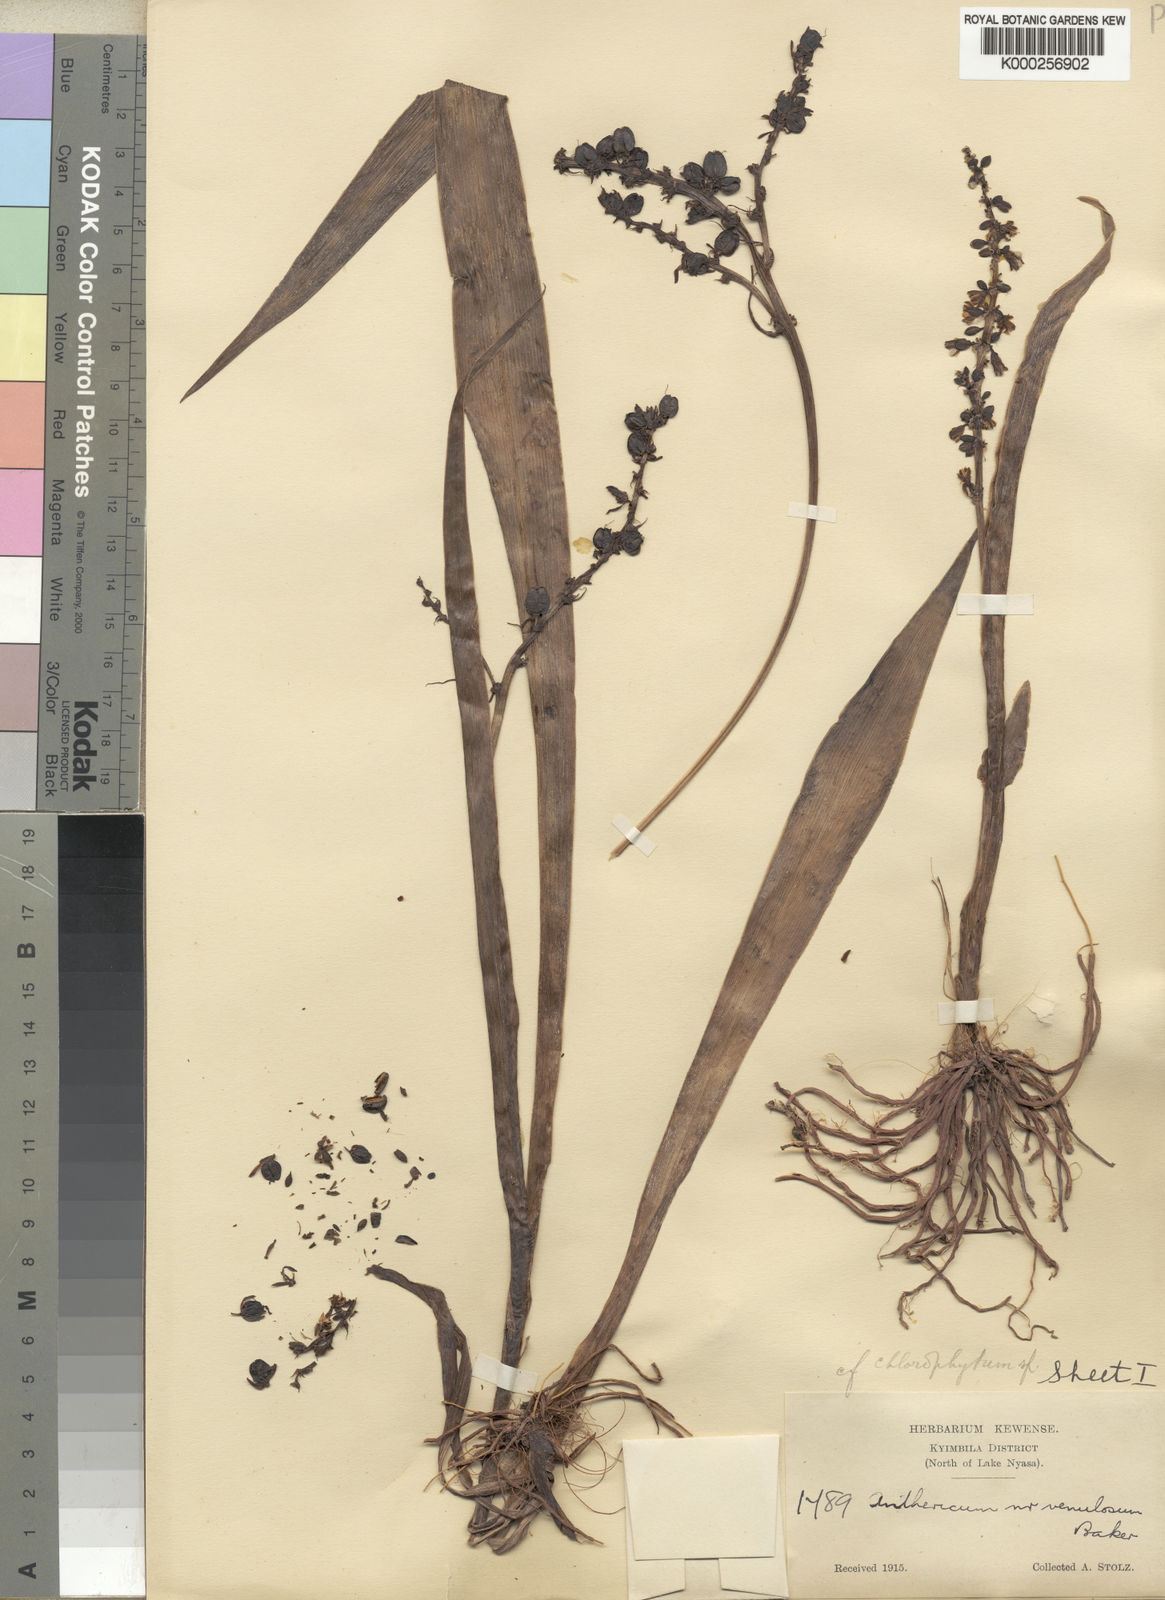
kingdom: Plantae
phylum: Tracheophyta
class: Liliopsida
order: Asparagales
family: Asparagaceae
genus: Chlorophytum
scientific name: Chlorophytum blepharophyllum
